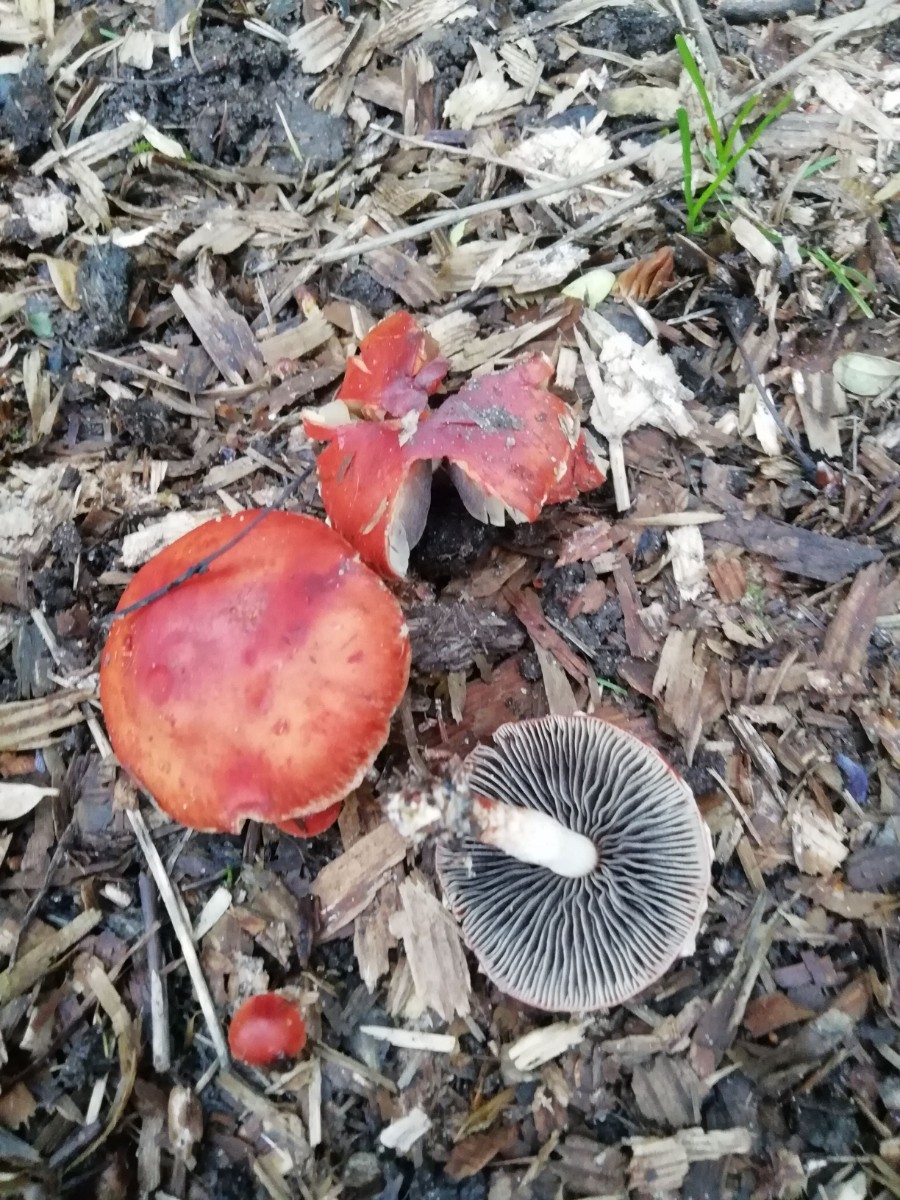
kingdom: Fungi
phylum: Basidiomycota
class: Agaricomycetes
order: Agaricales
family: Strophariaceae
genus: Leratiomyces
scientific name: Leratiomyces ceres
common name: orange bredblad
